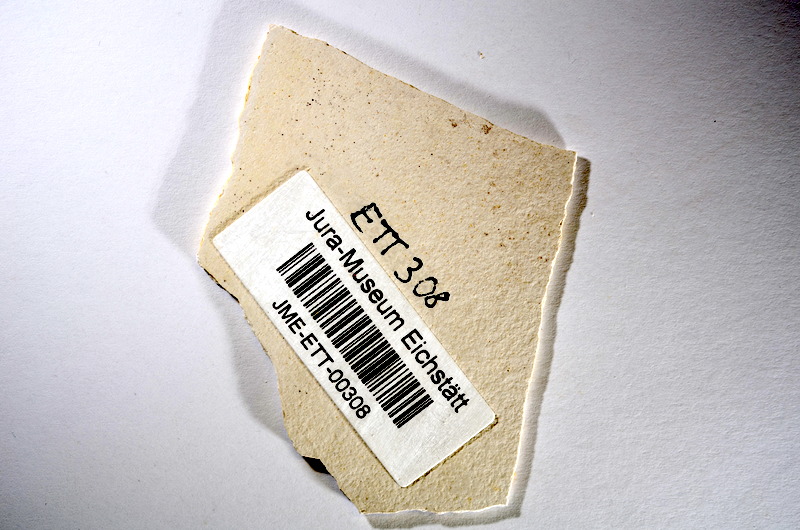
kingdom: Animalia
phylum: Chordata
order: Salmoniformes
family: Orthogonikleithridae
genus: Orthogonikleithrus
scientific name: Orthogonikleithrus hoelli
